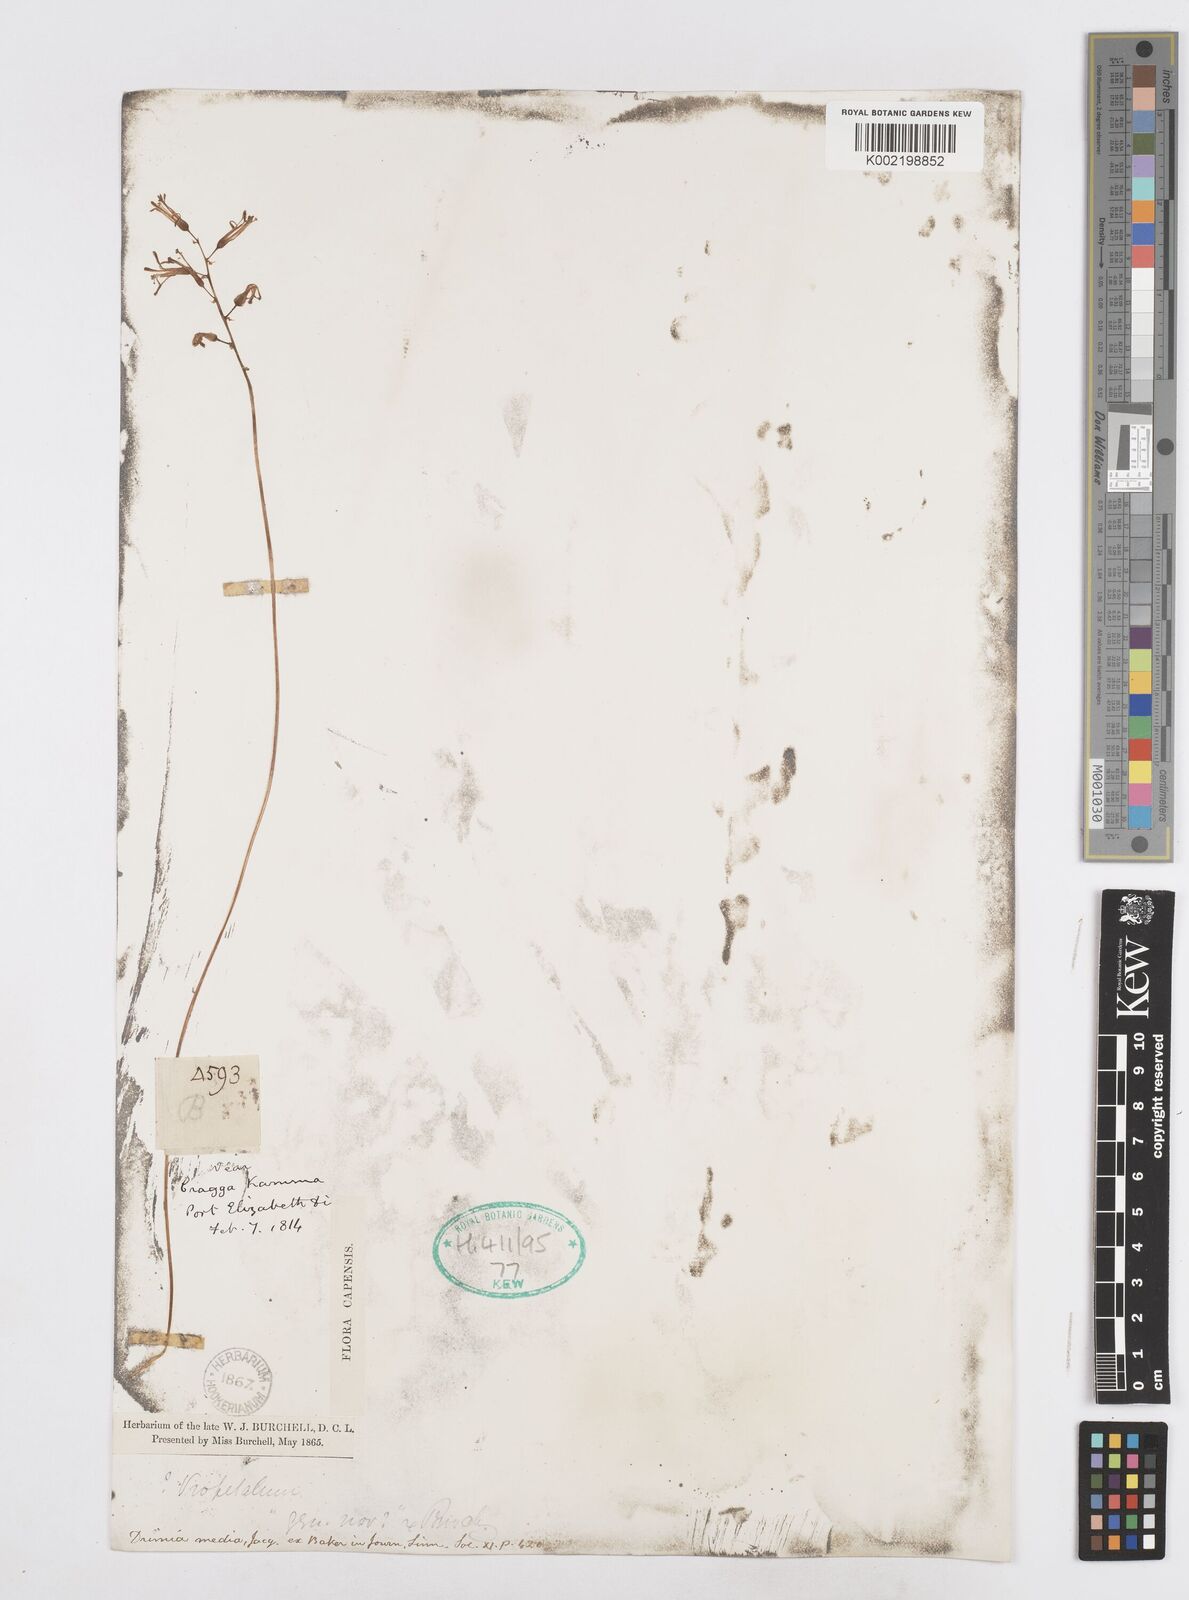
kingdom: Plantae
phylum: Tracheophyta
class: Liliopsida
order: Asparagales
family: Asparagaceae
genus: Drimia
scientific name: Drimia media
